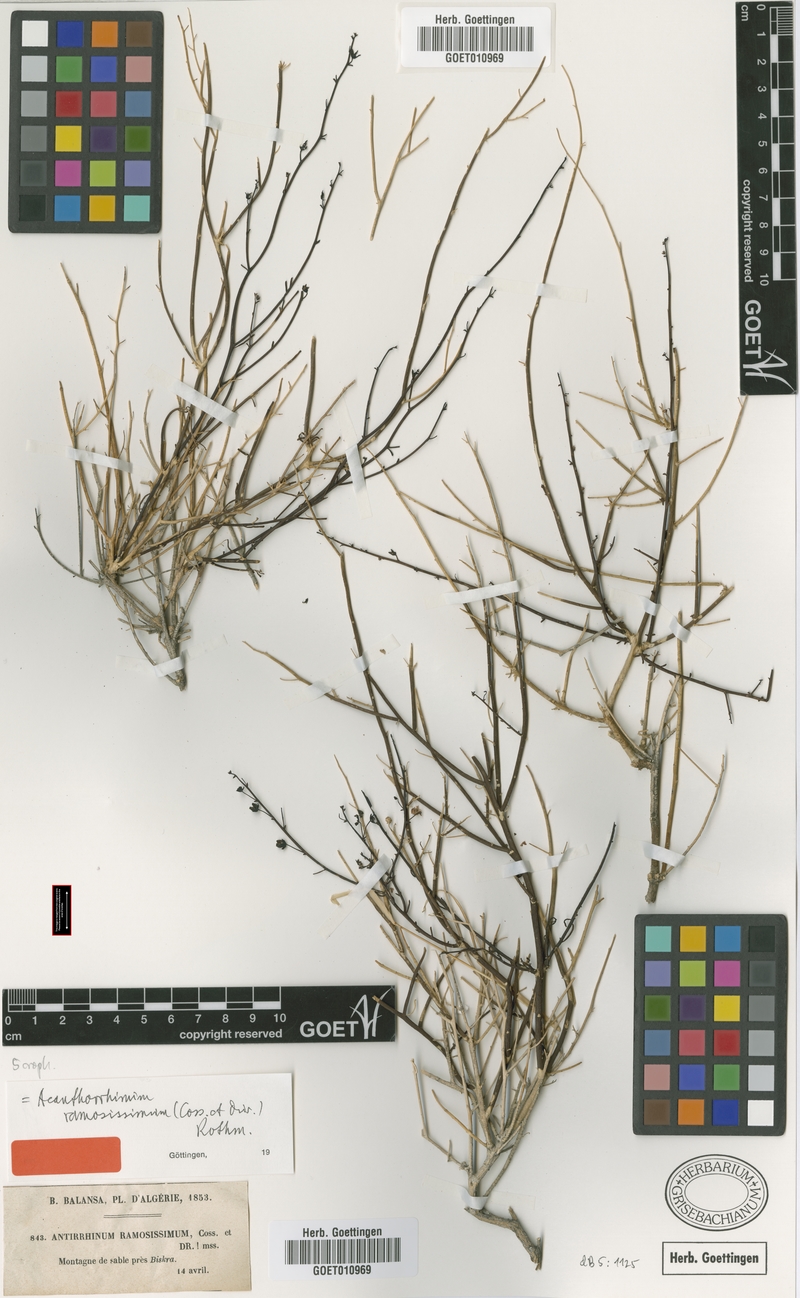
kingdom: Plantae
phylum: Tracheophyta
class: Magnoliopsida
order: Lamiales
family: Plantaginaceae
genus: Acanthorrhinum
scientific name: Acanthorrhinum ramosissimum
